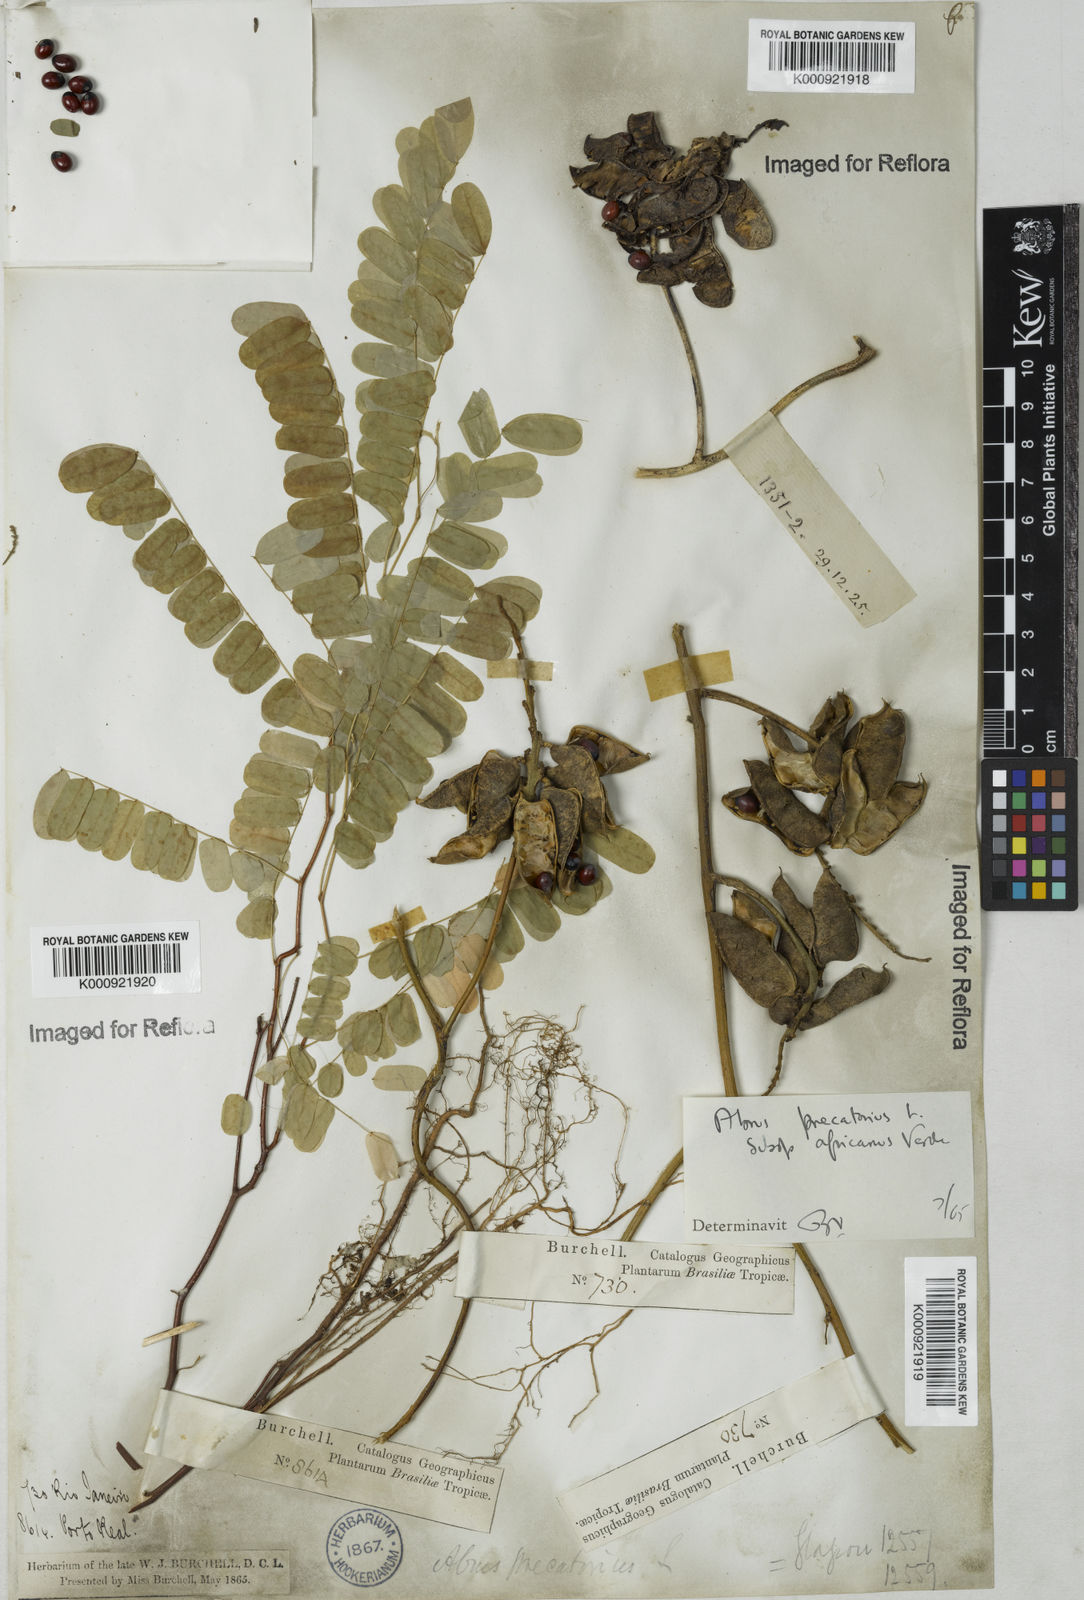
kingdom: Plantae
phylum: Tracheophyta
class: Magnoliopsida
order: Fabales
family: Fabaceae
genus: Abrus
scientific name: Abrus precatorius
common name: Rosarypea
